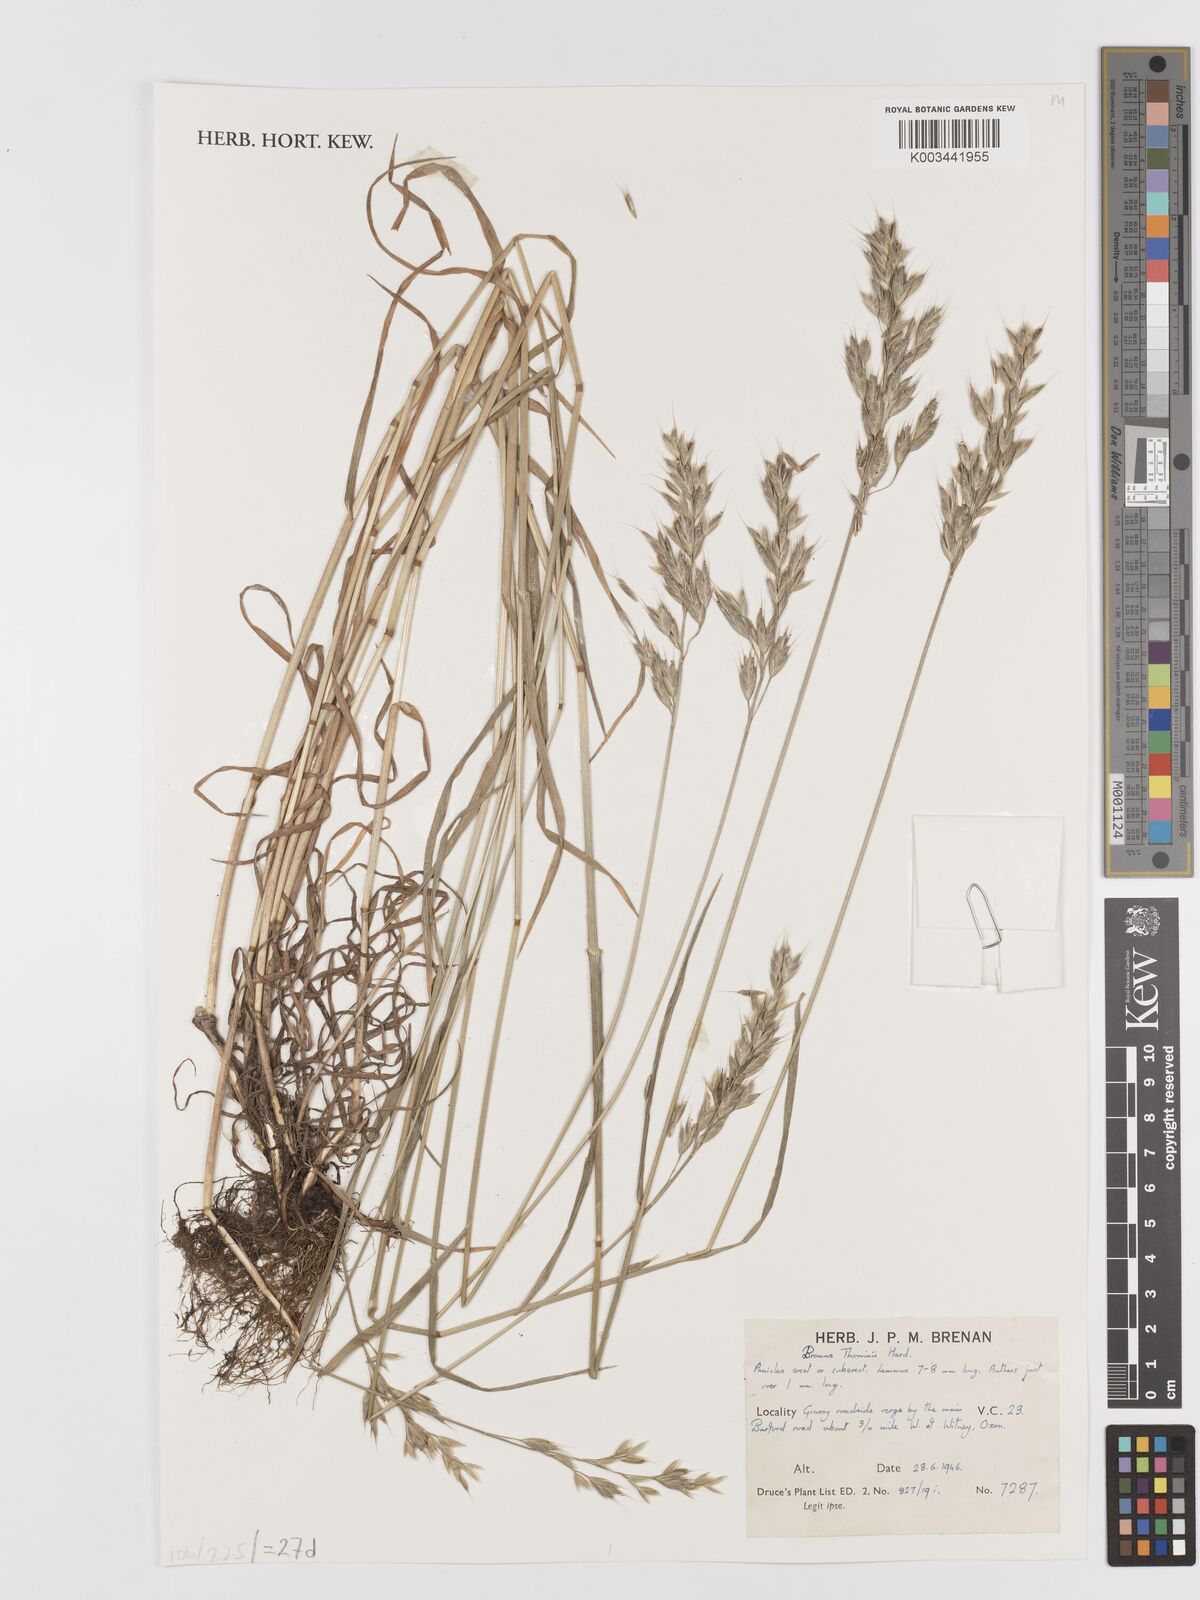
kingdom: Plantae
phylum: Tracheophyta
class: Liliopsida
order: Poales
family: Poaceae
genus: Bromus
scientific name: Bromus hordeaceus
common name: Soft brome
